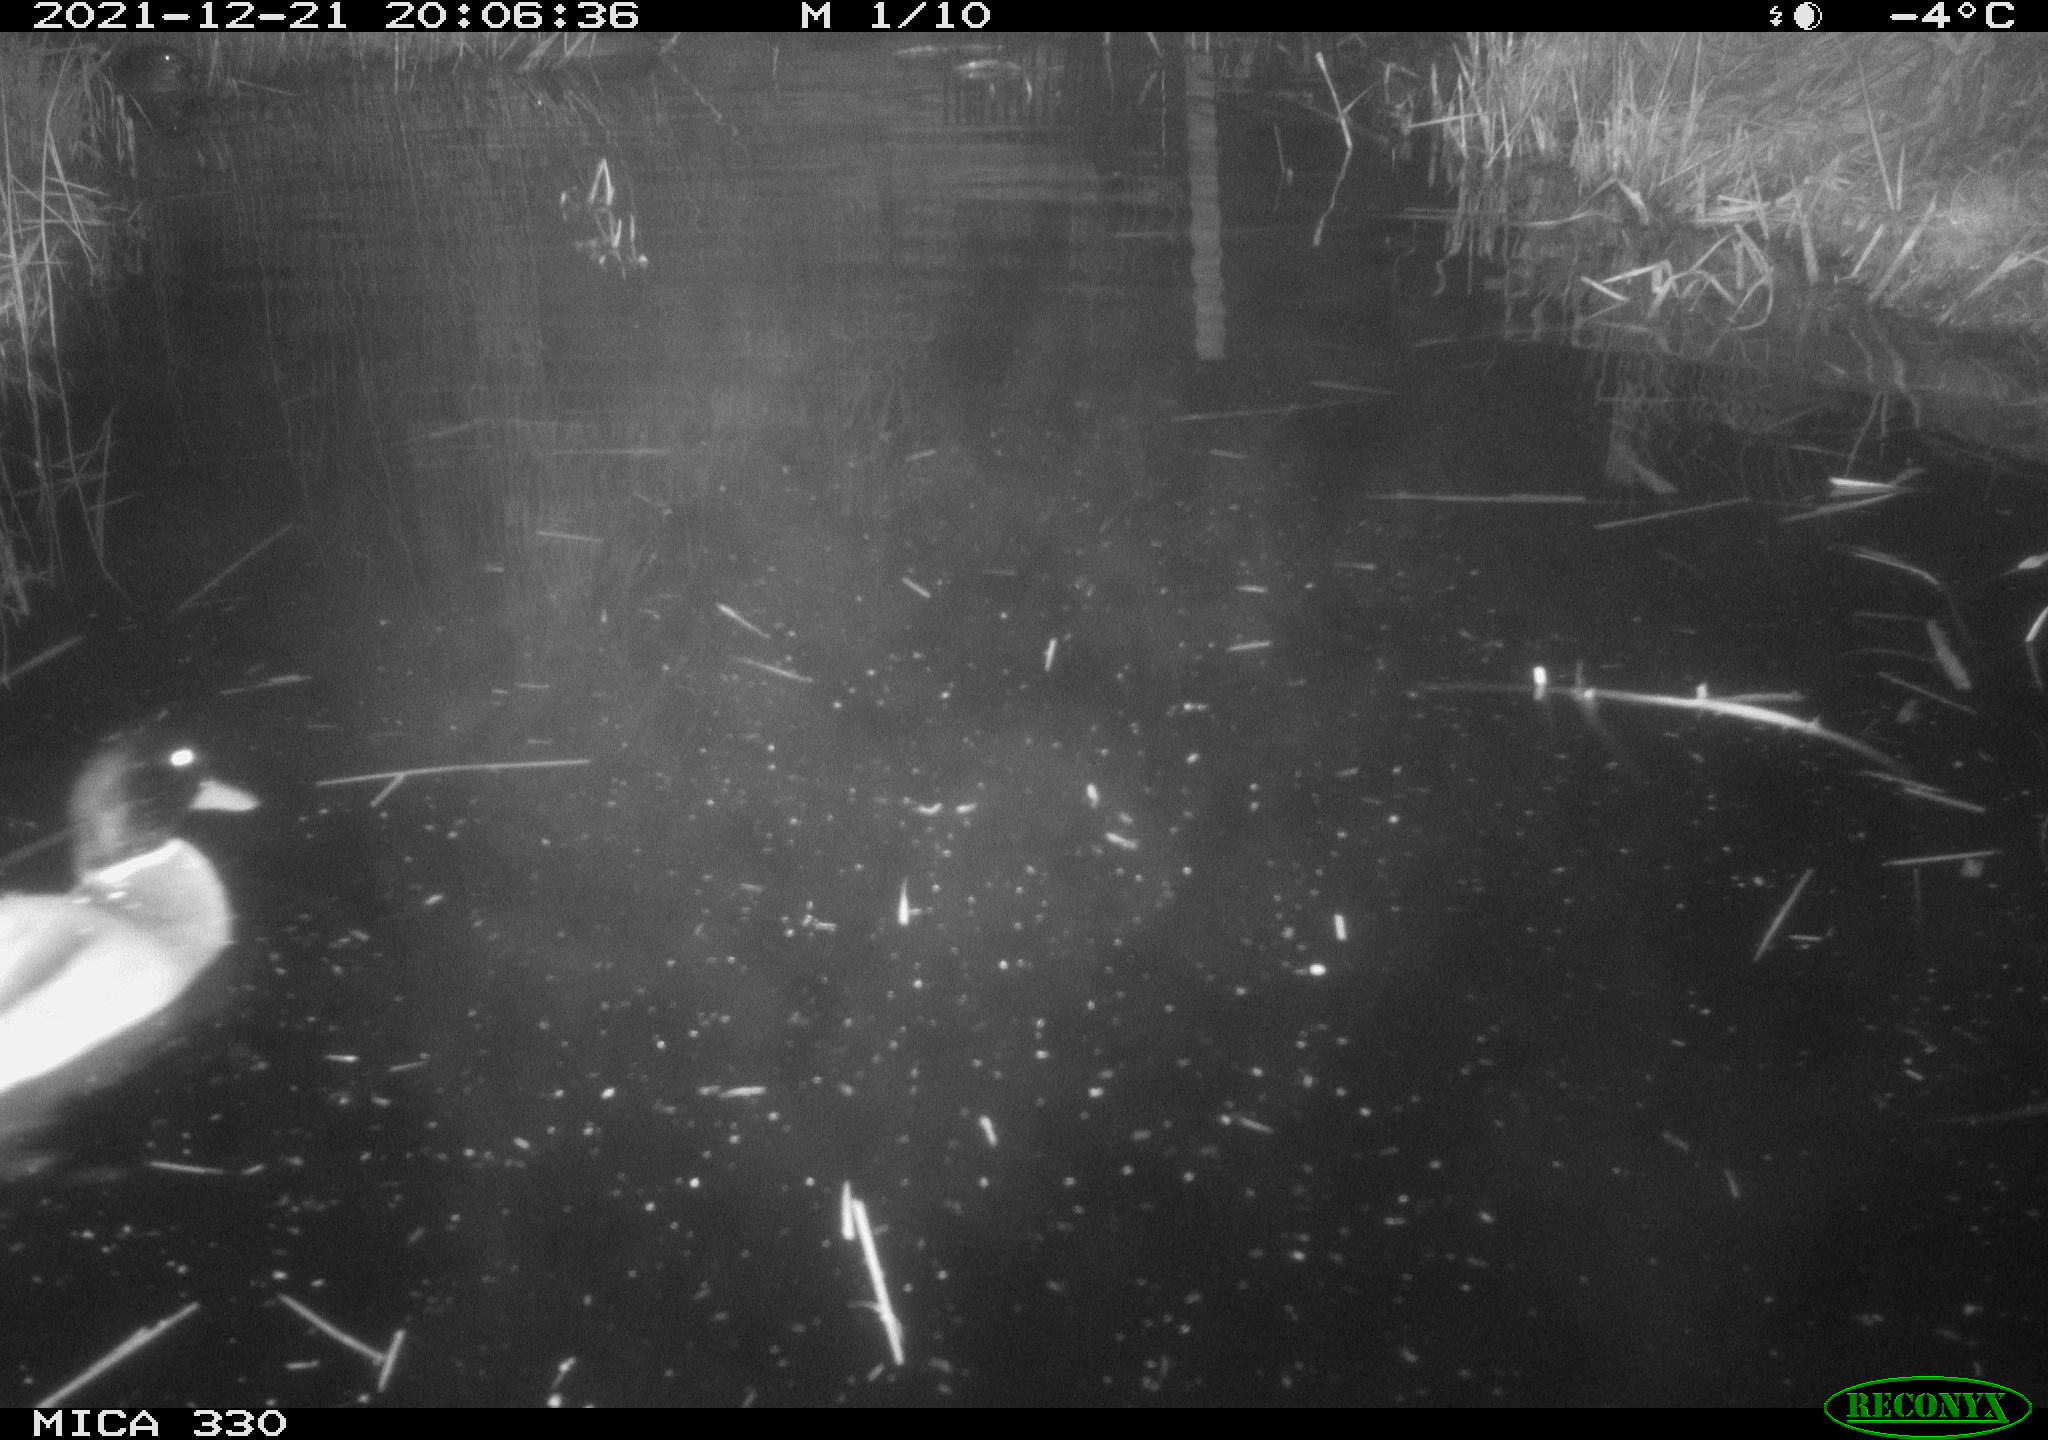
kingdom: Animalia
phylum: Chordata
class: Aves
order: Anseriformes
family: Anatidae
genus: Anas
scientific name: Anas platyrhynchos
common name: Mallard
